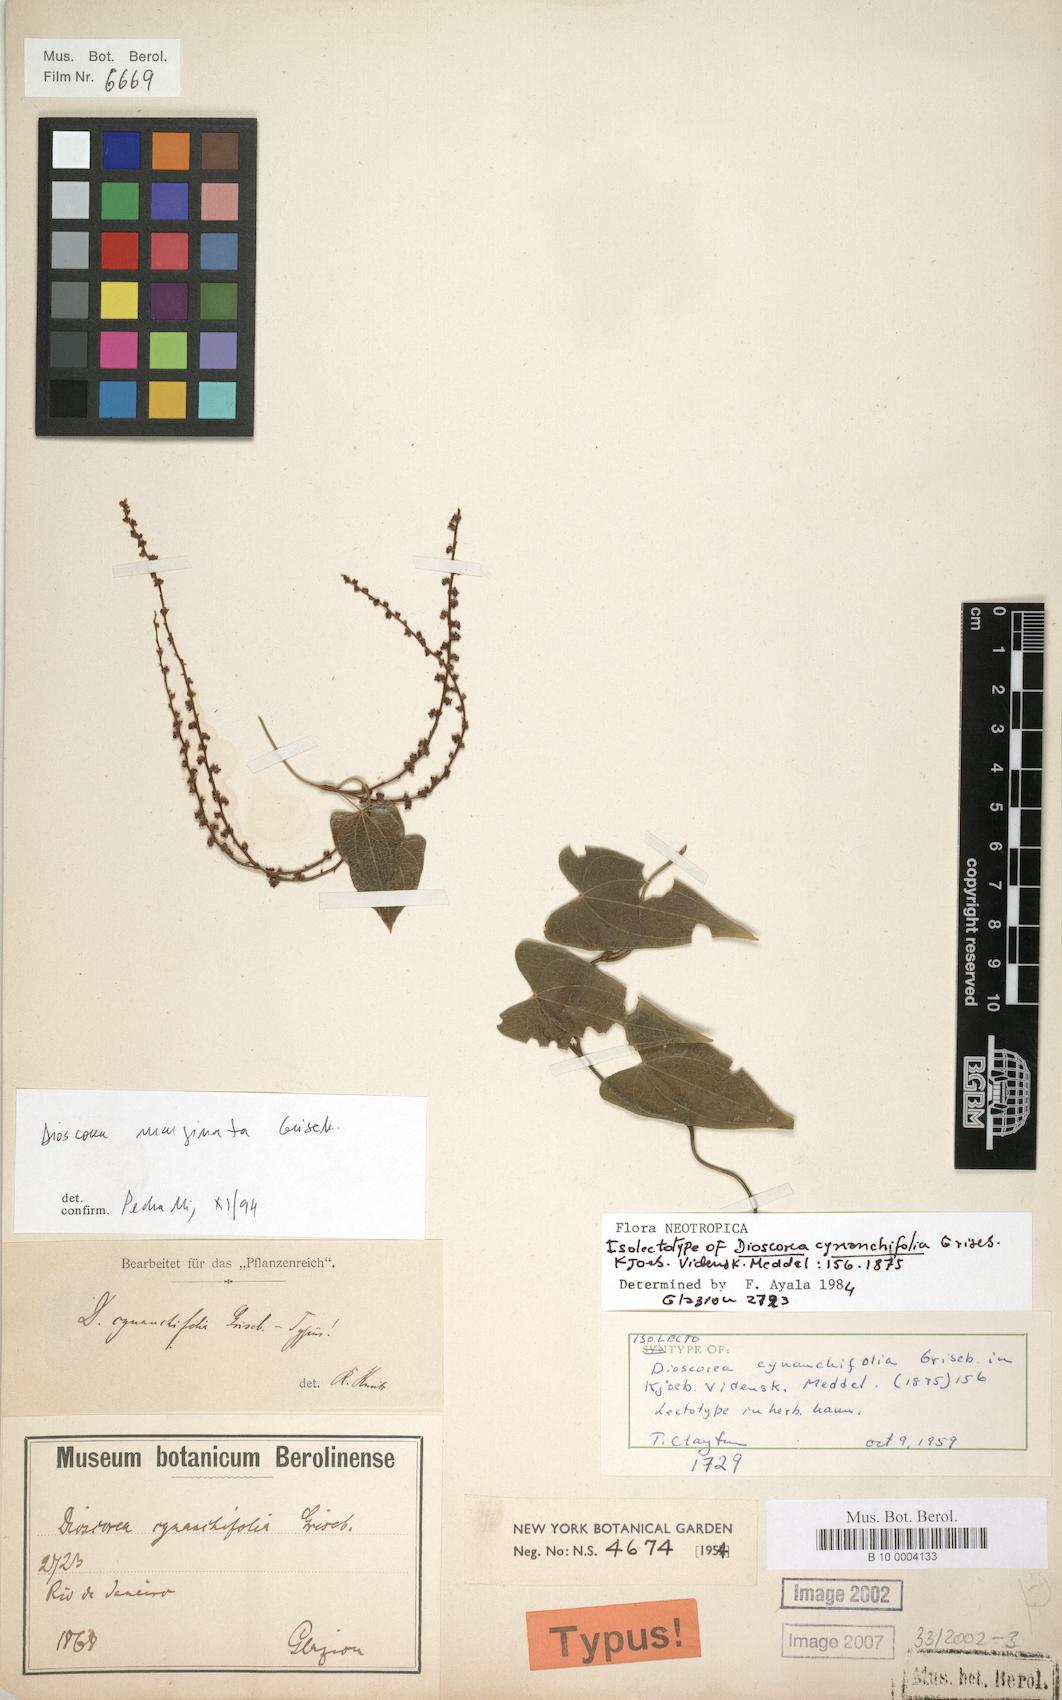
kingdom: Plantae
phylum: Tracheophyta
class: Liliopsida
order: Dioscoreales
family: Dioscoreaceae
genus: Dioscorea
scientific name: Dioscorea marginata
